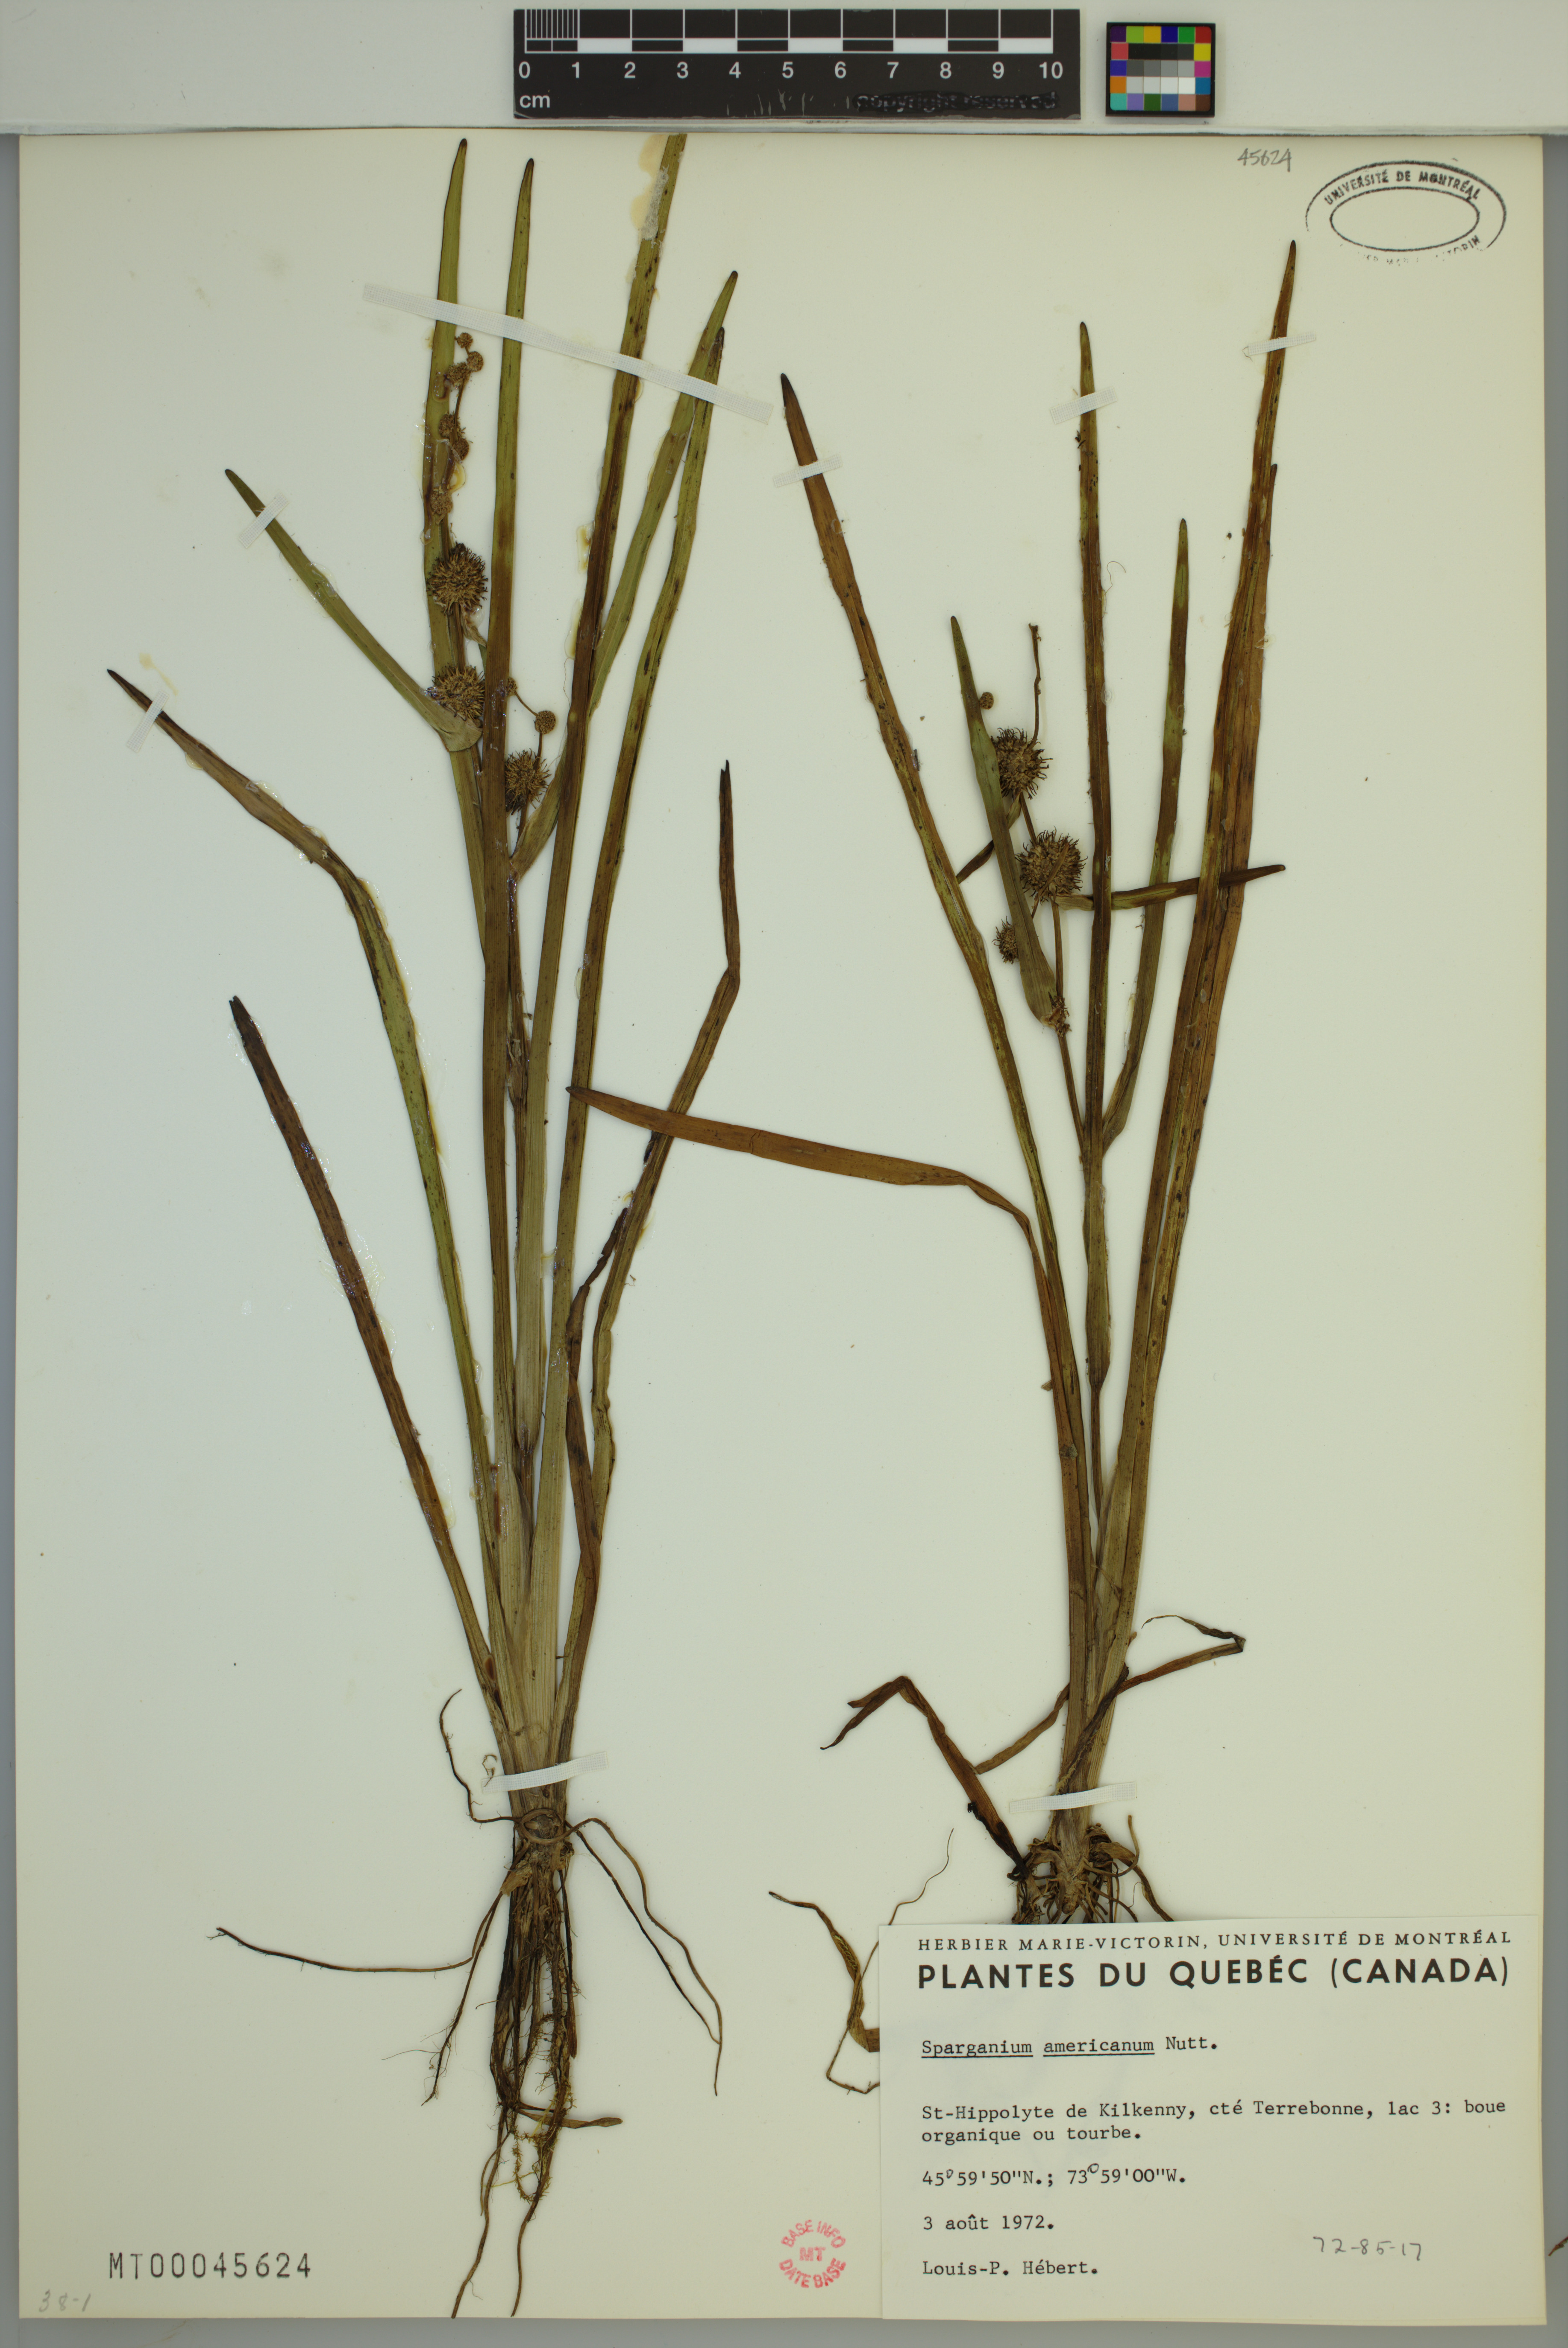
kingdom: Plantae
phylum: Tracheophyta
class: Liliopsida
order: Poales
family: Typhaceae
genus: Sparganium
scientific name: Sparganium americanum
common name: American burreed
